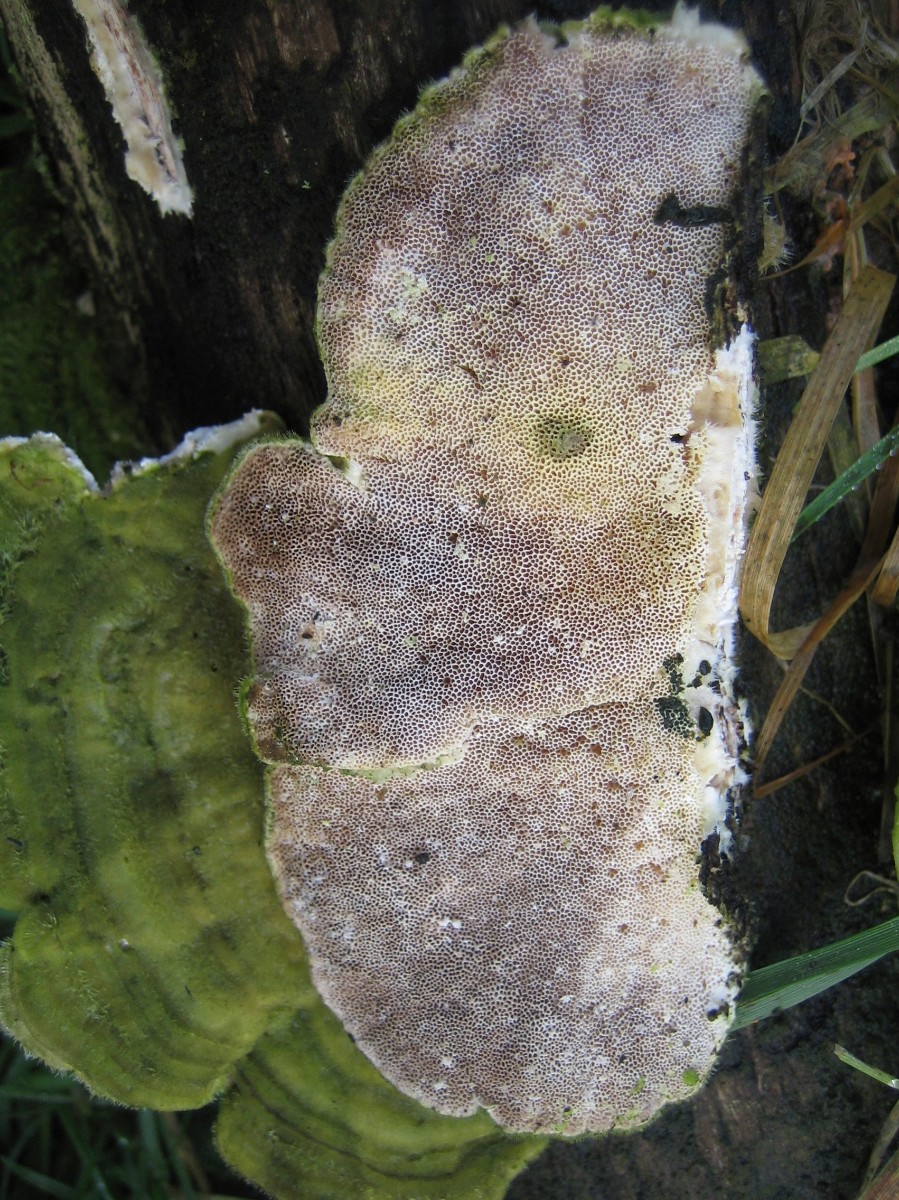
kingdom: Fungi
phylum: Basidiomycota
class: Agaricomycetes
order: Polyporales
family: Polyporaceae
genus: Trametes
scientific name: Trametes hirsuta
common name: håret læderporesvamp
